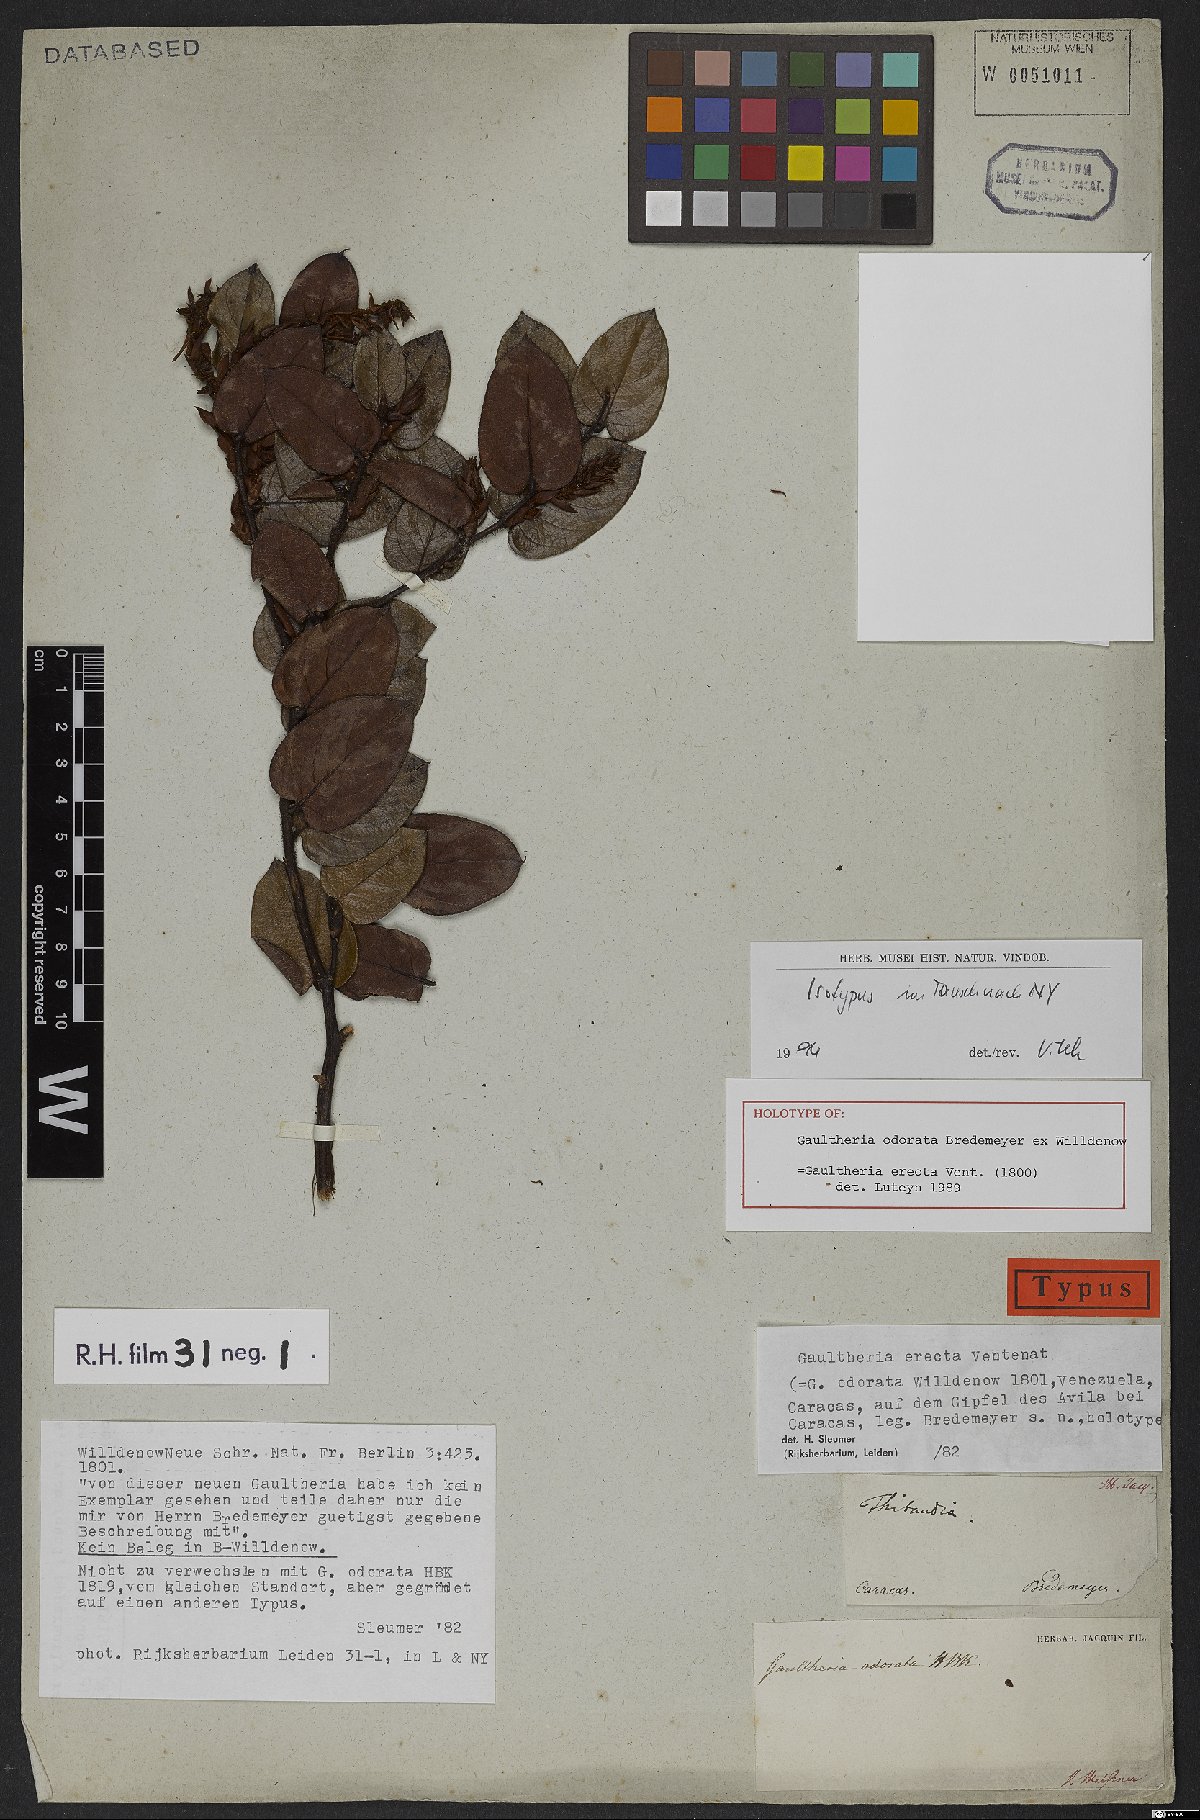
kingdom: Plantae
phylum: Tracheophyta
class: Magnoliopsida
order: Ericales
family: Ericaceae
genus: Gaultheria
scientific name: Gaultheria erecta
